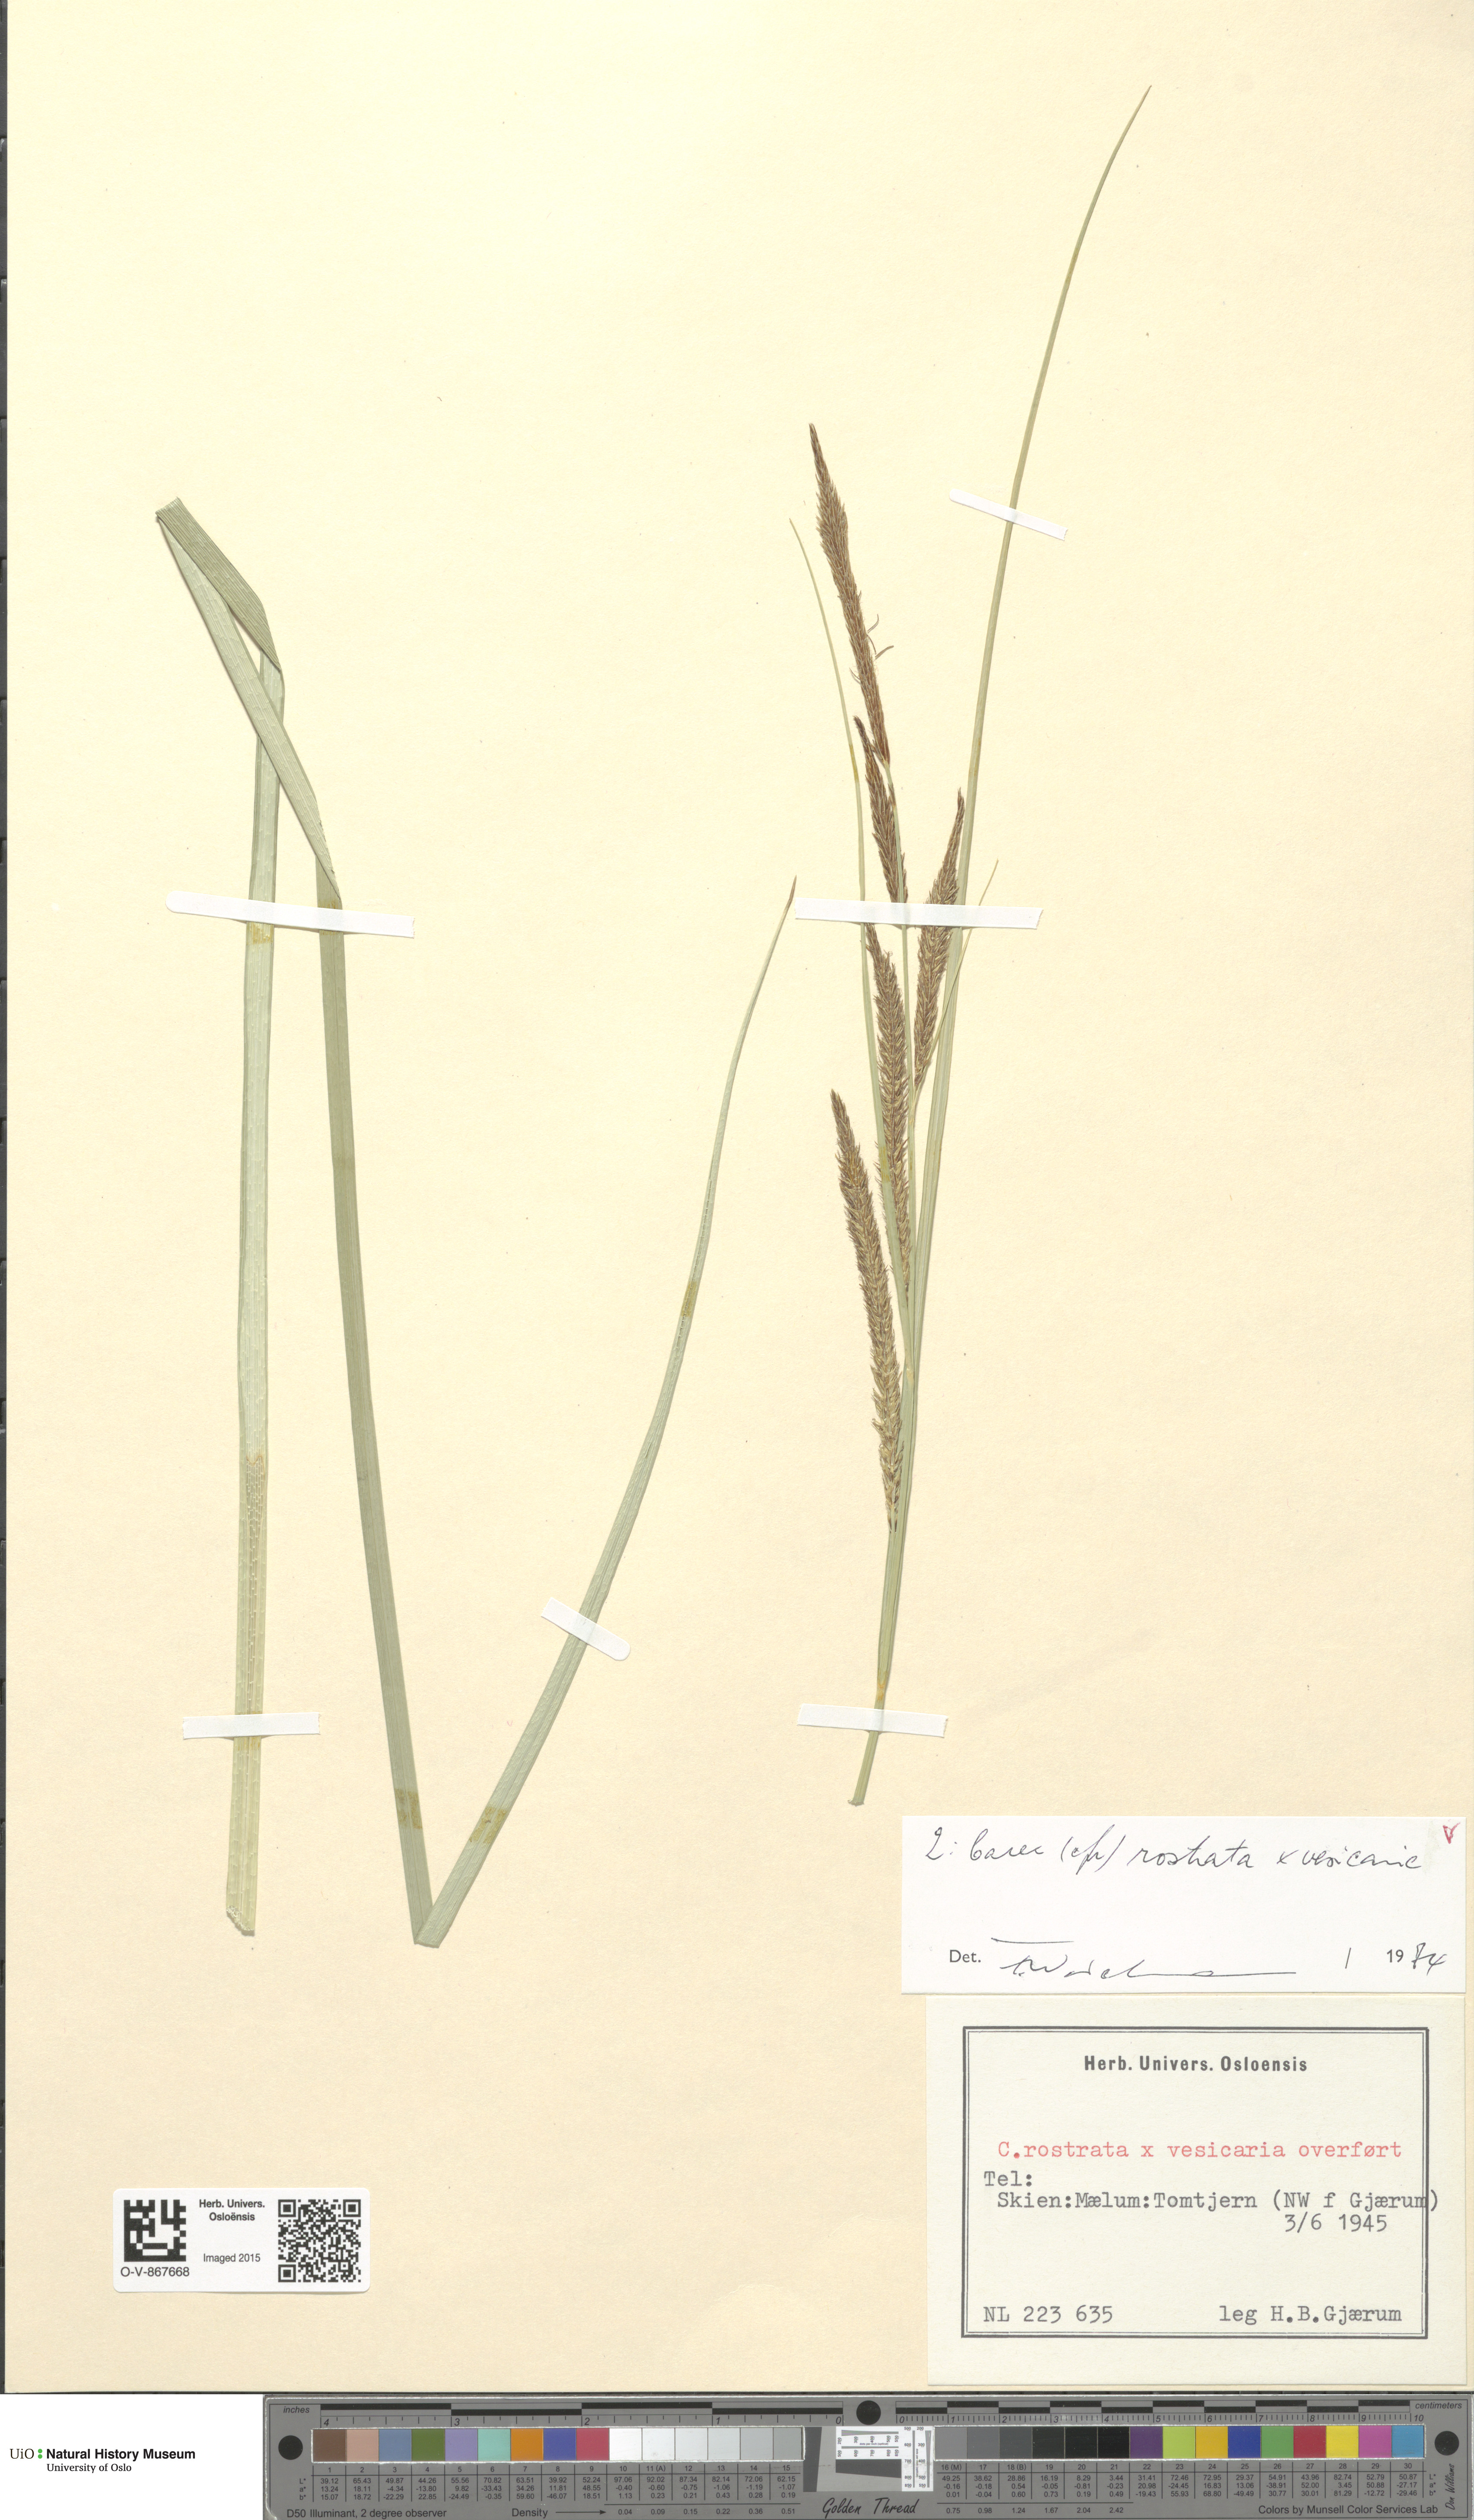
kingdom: Plantae
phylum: Tracheophyta
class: Liliopsida
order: Poales
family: Cyperaceae
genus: Carex
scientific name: Carex
